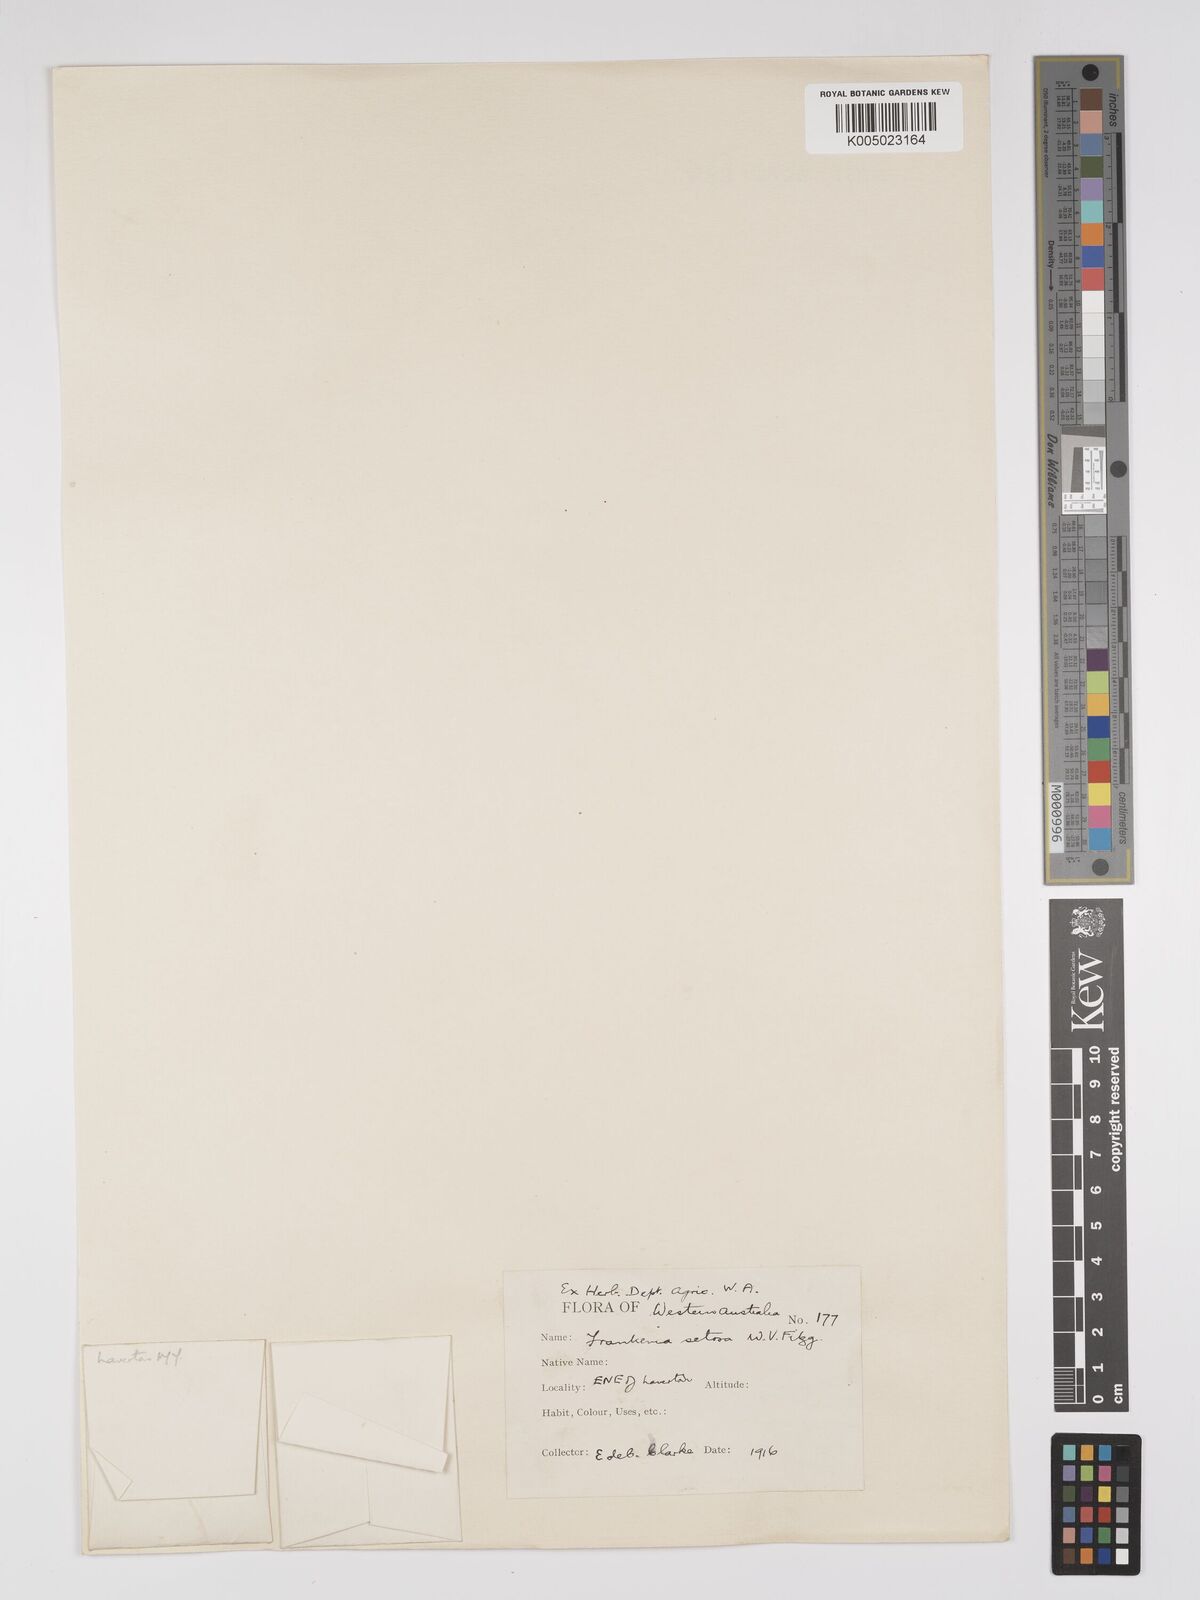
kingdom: Plantae
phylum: Tracheophyta
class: Magnoliopsida
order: Caryophyllales
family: Frankeniaceae
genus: Frankenia
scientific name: Frankenia setosa
